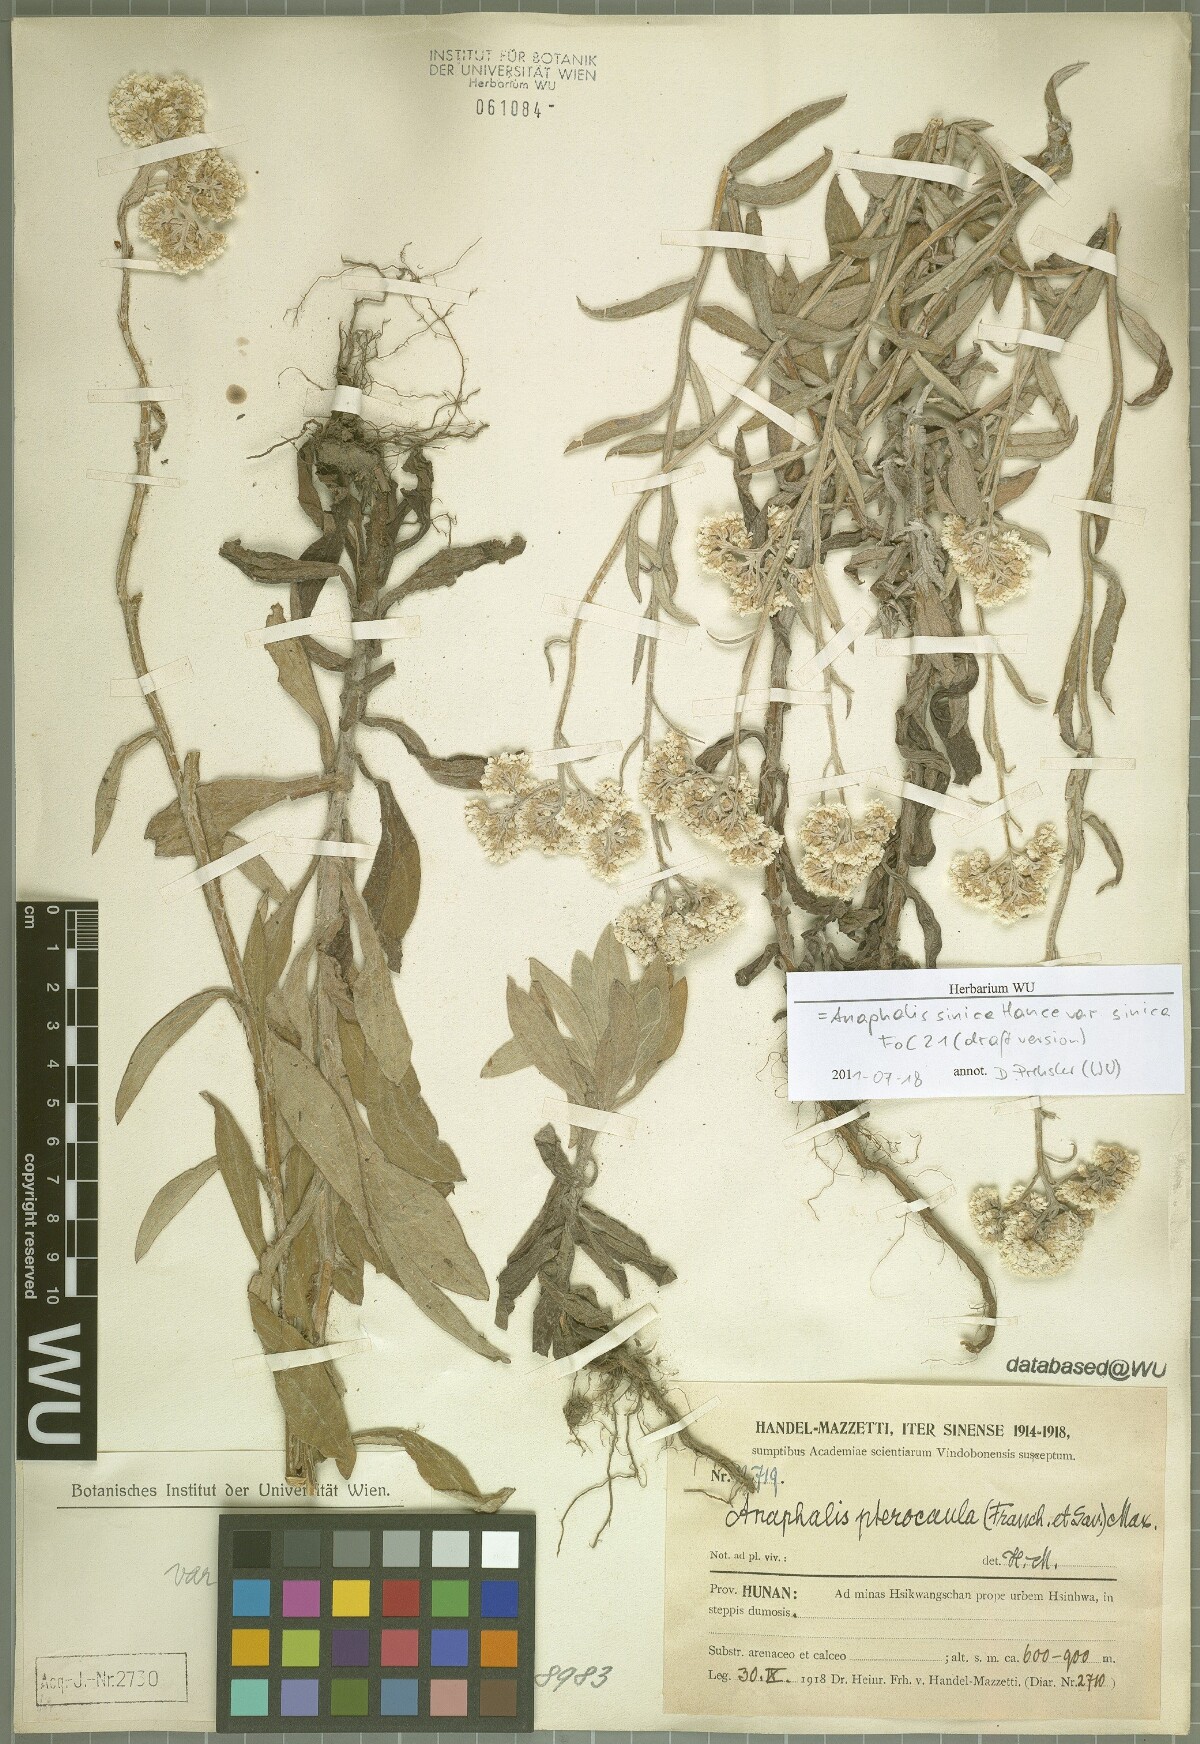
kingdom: Plantae
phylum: Tracheophyta
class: Magnoliopsida
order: Asterales
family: Asteraceae
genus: Anaphalis
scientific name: Anaphalis sinica
